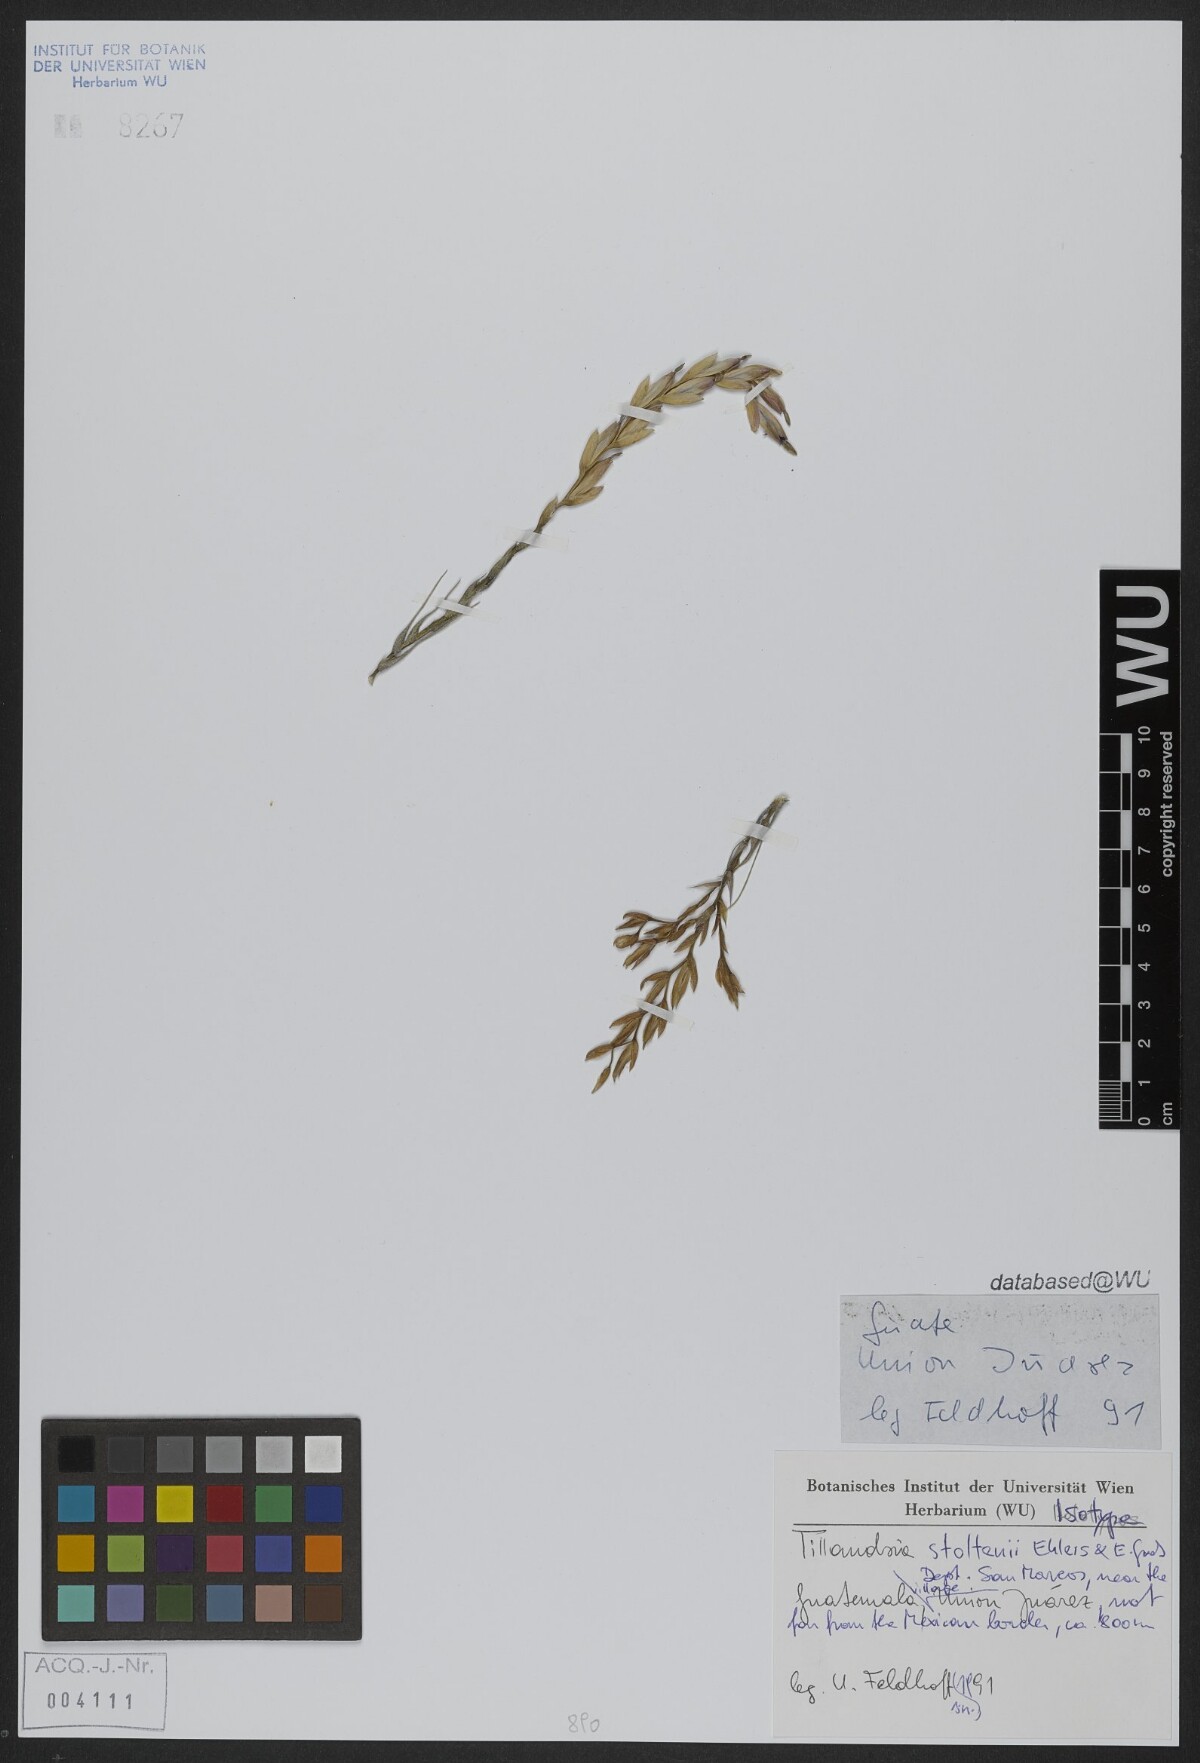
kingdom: Plantae
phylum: Tracheophyta
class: Liliopsida
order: Poales
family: Bromeliaceae
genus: Tillandsia
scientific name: Tillandsia stoltenii
